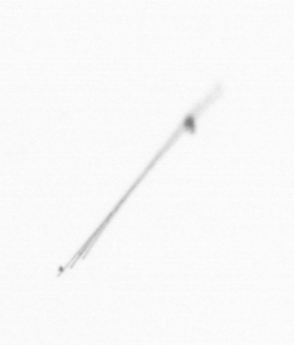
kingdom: Chromista
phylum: Ochrophyta
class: Bacillariophyceae
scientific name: Bacillariophyceae
